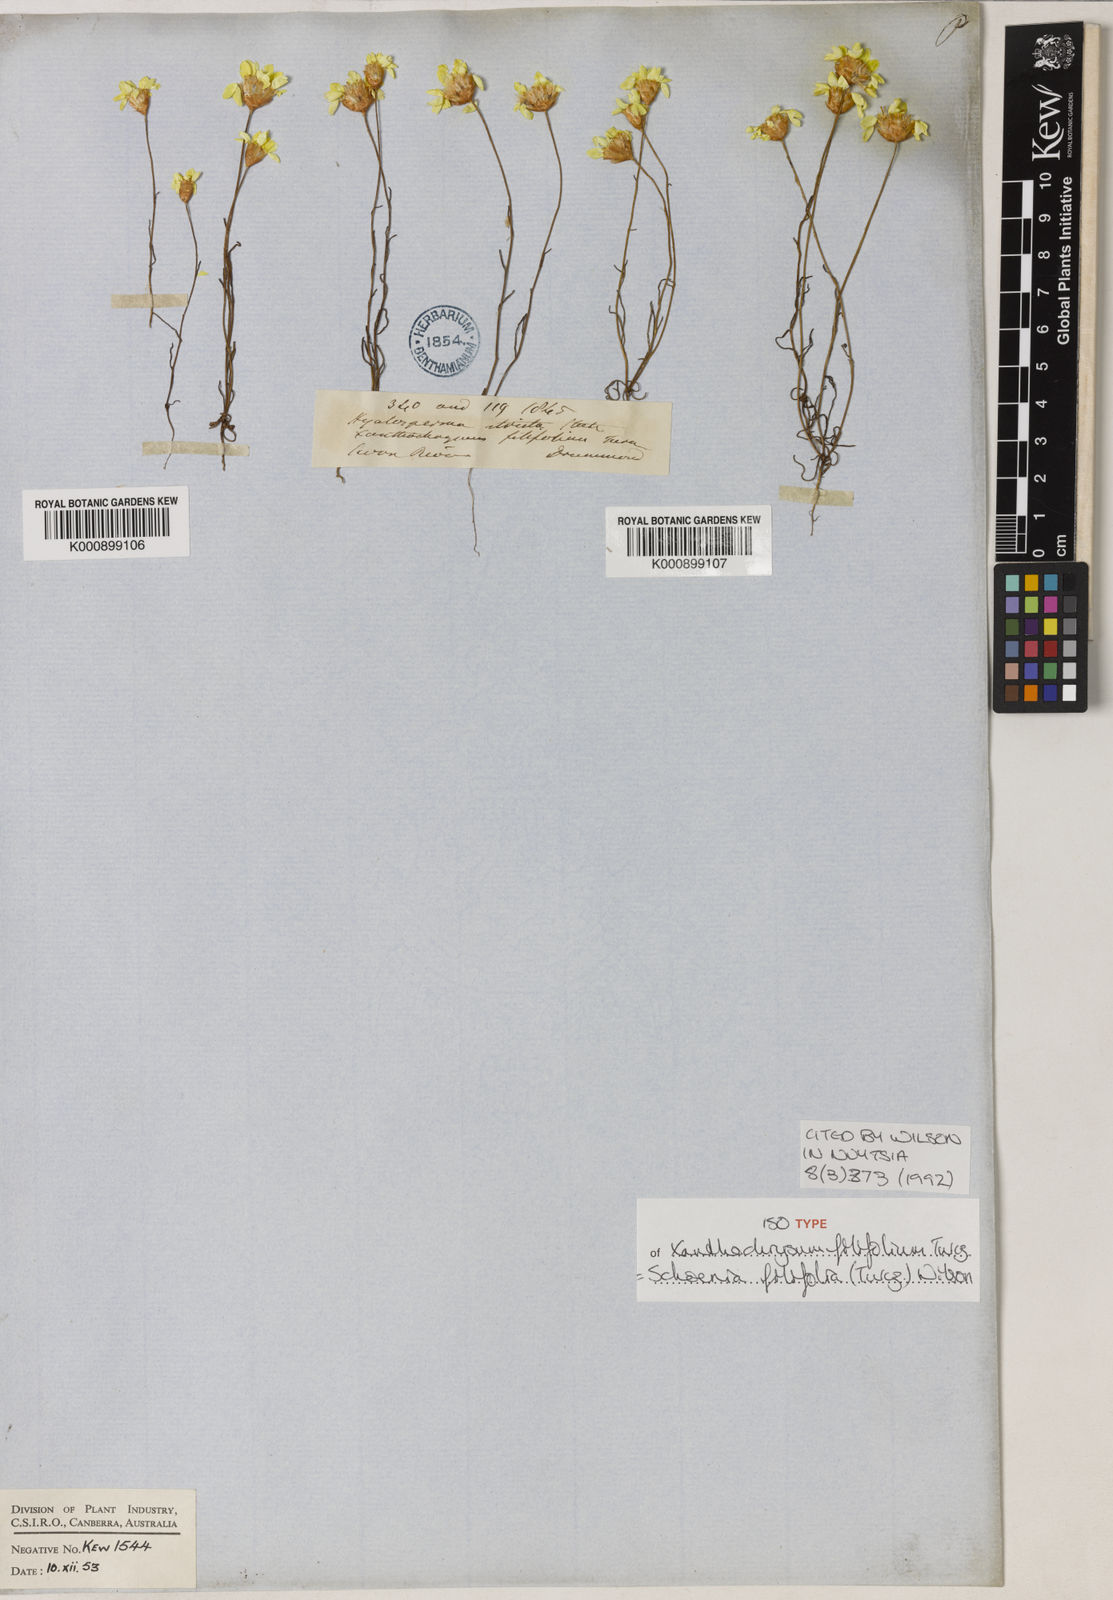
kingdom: Plantae
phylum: Tracheophyta
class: Magnoliopsida
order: Asterales
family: Asteraceae
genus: Schoenia
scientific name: Schoenia filifolia
